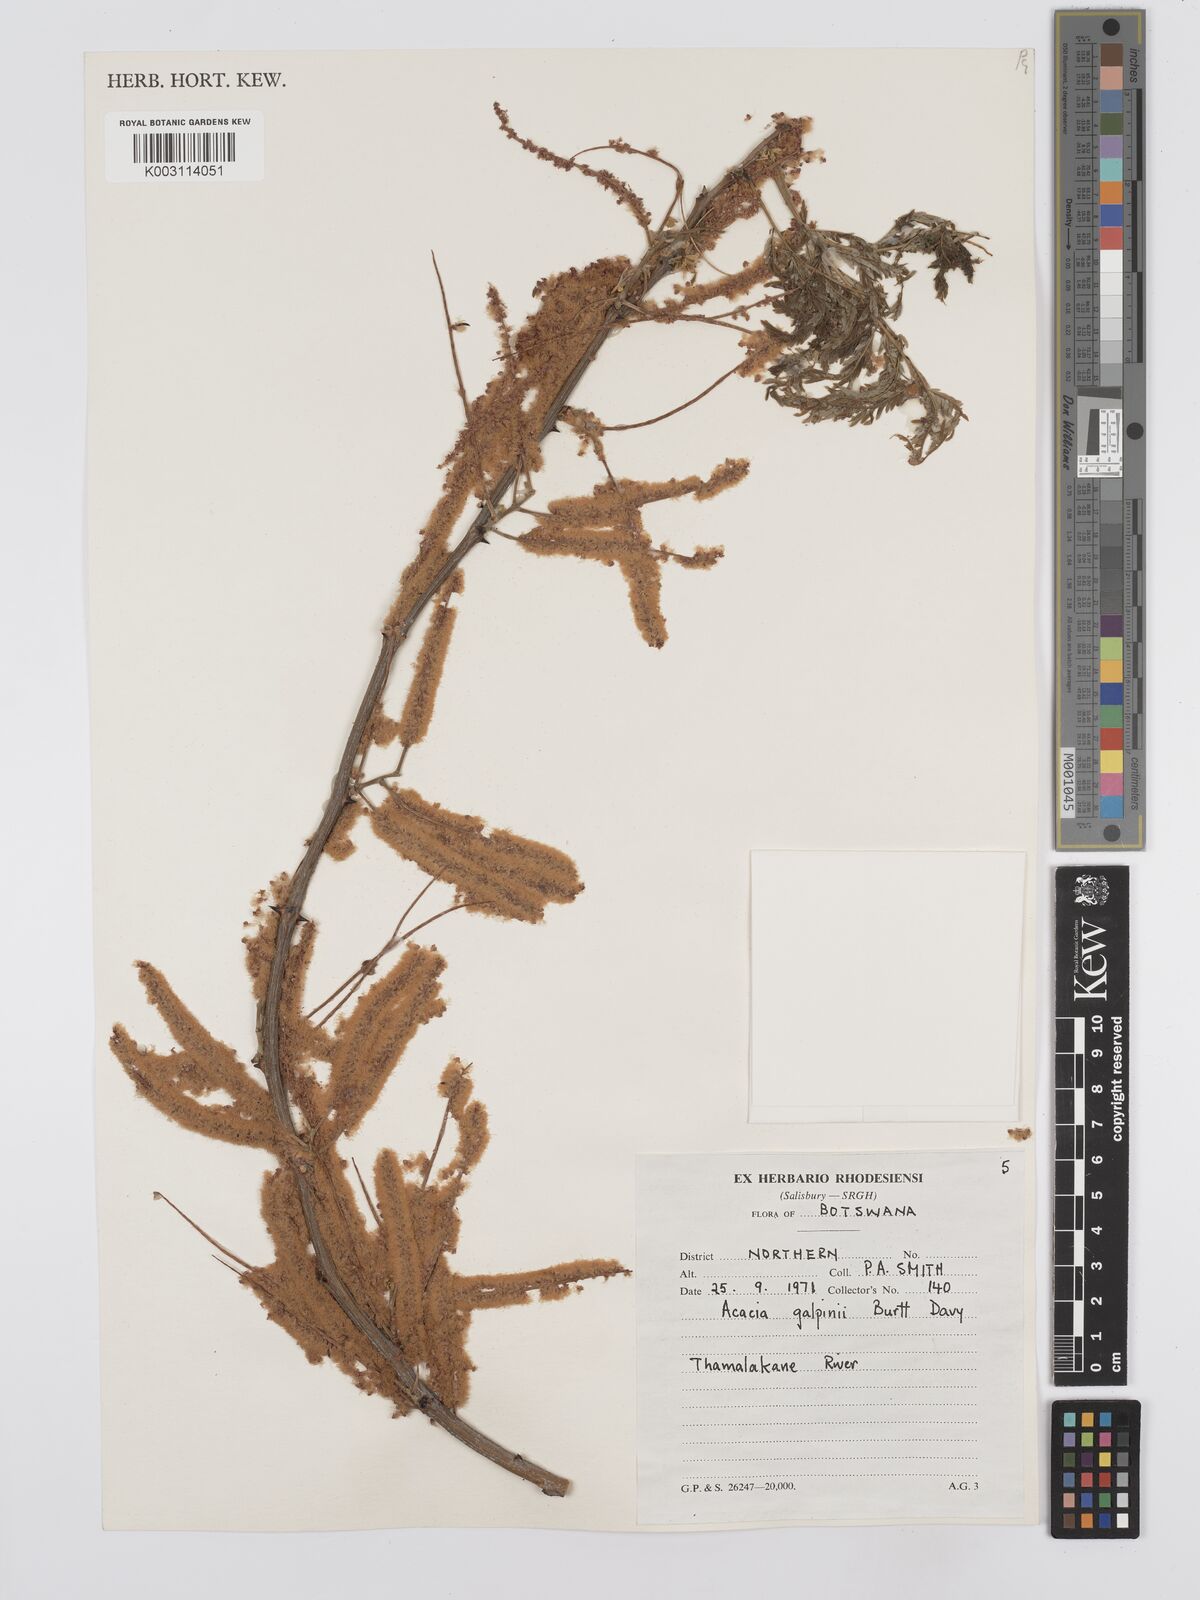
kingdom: Plantae
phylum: Tracheophyta
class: Magnoliopsida
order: Fabales
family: Fabaceae
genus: Senegalia
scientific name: Senegalia galpinii
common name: Monkey-thorn
